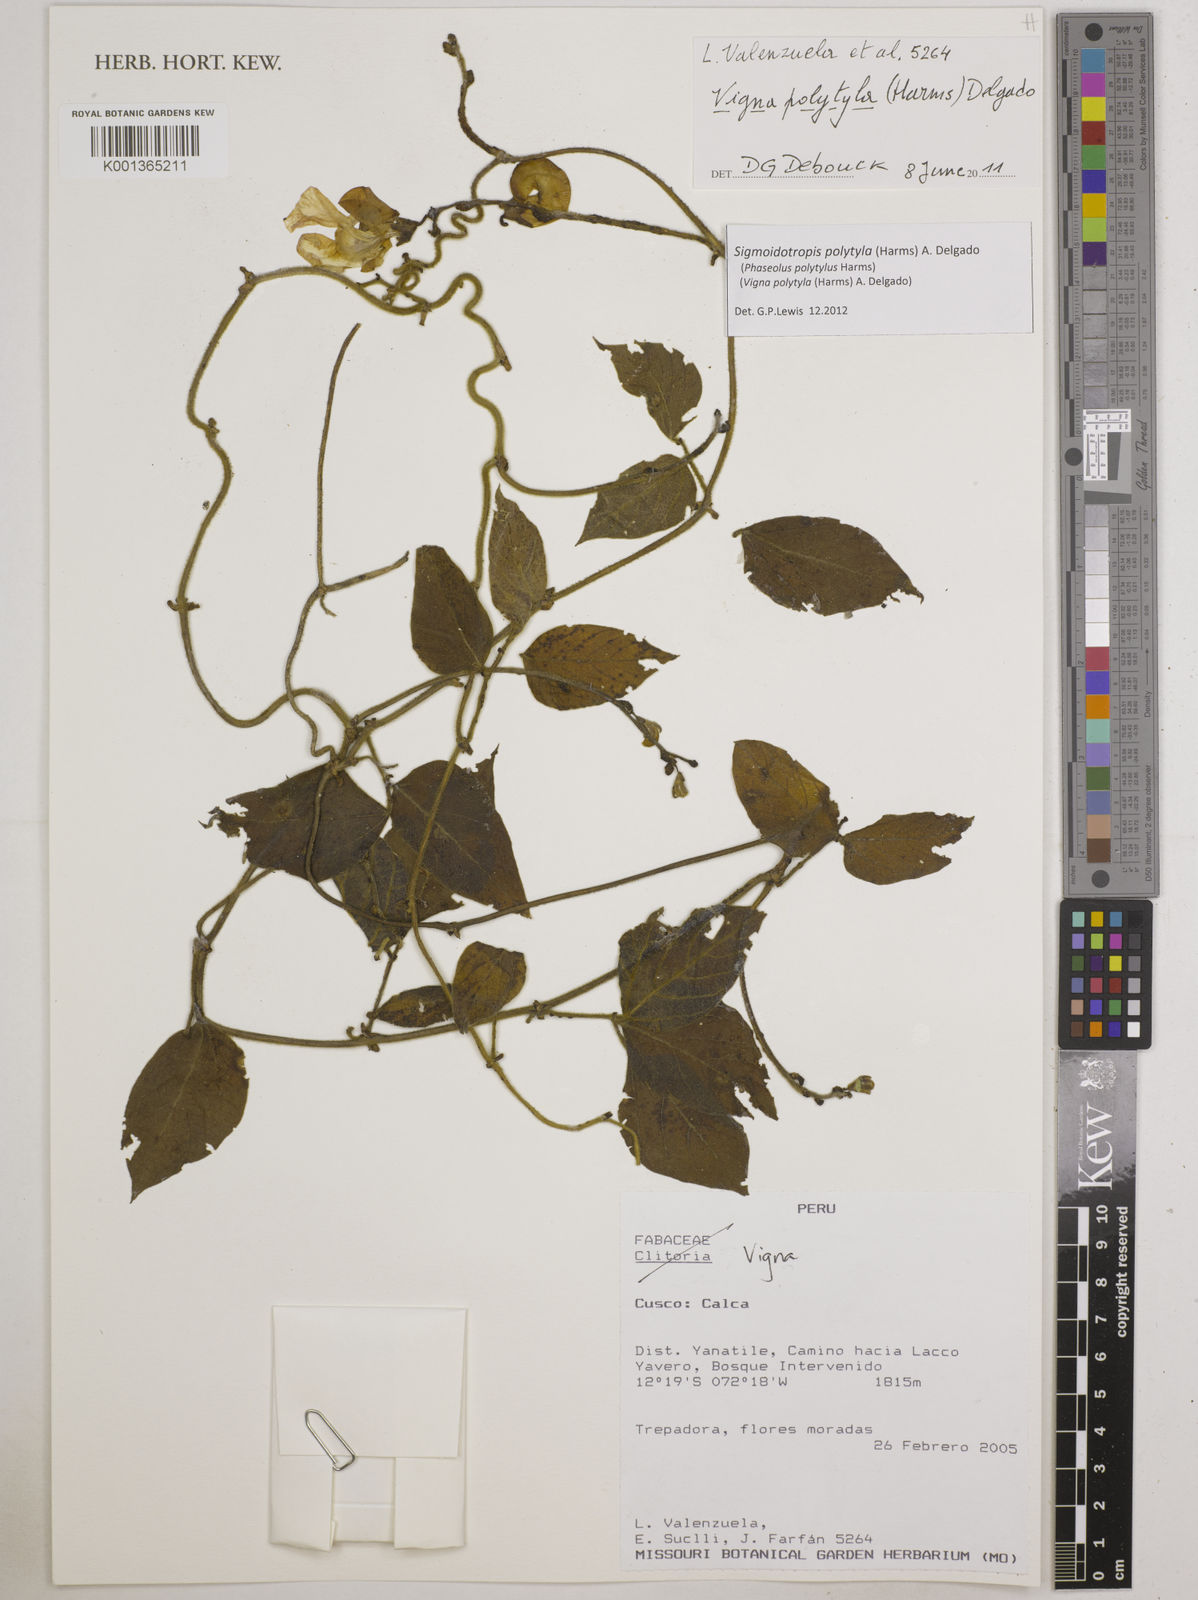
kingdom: Plantae
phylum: Tracheophyta
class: Magnoliopsida
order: Fabales
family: Fabaceae
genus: Sigmoidotropis
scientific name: Sigmoidotropis polytyla
